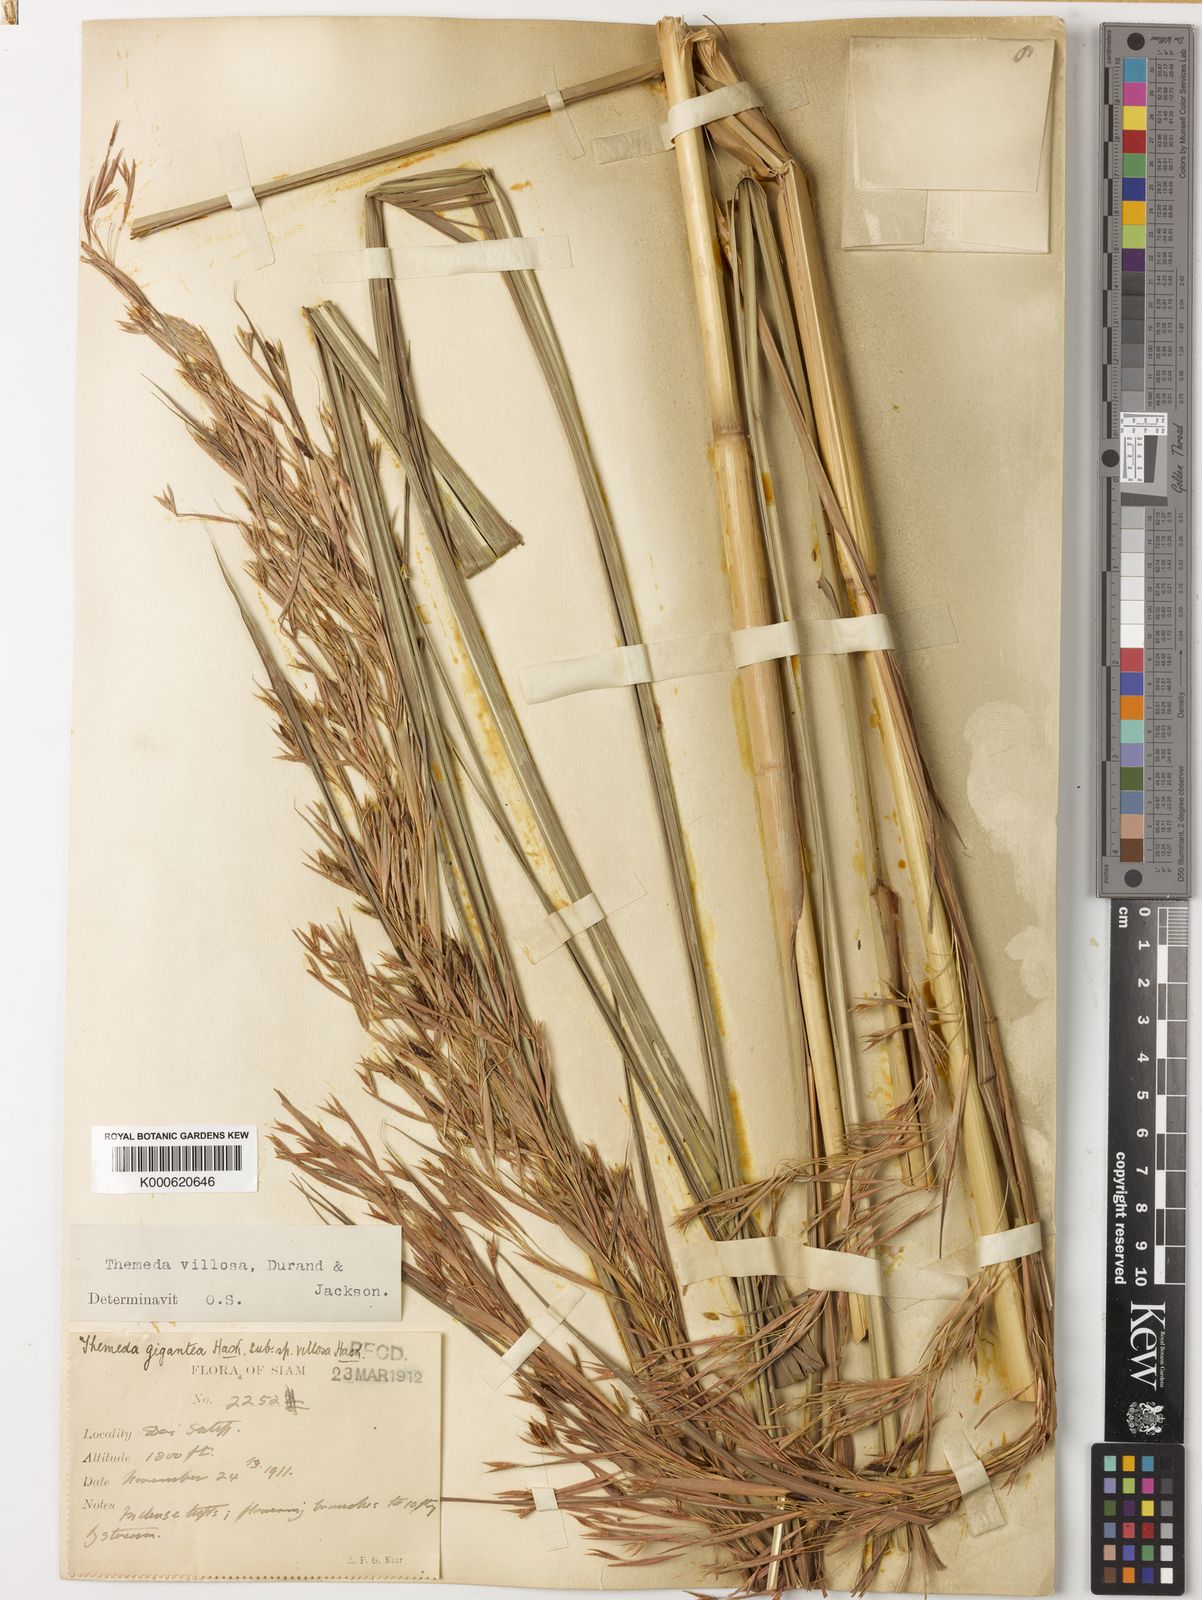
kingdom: Plantae
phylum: Tracheophyta
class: Liliopsida
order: Poales
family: Poaceae
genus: Themeda
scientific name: Themeda villosa
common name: Silky kangaroo grass
